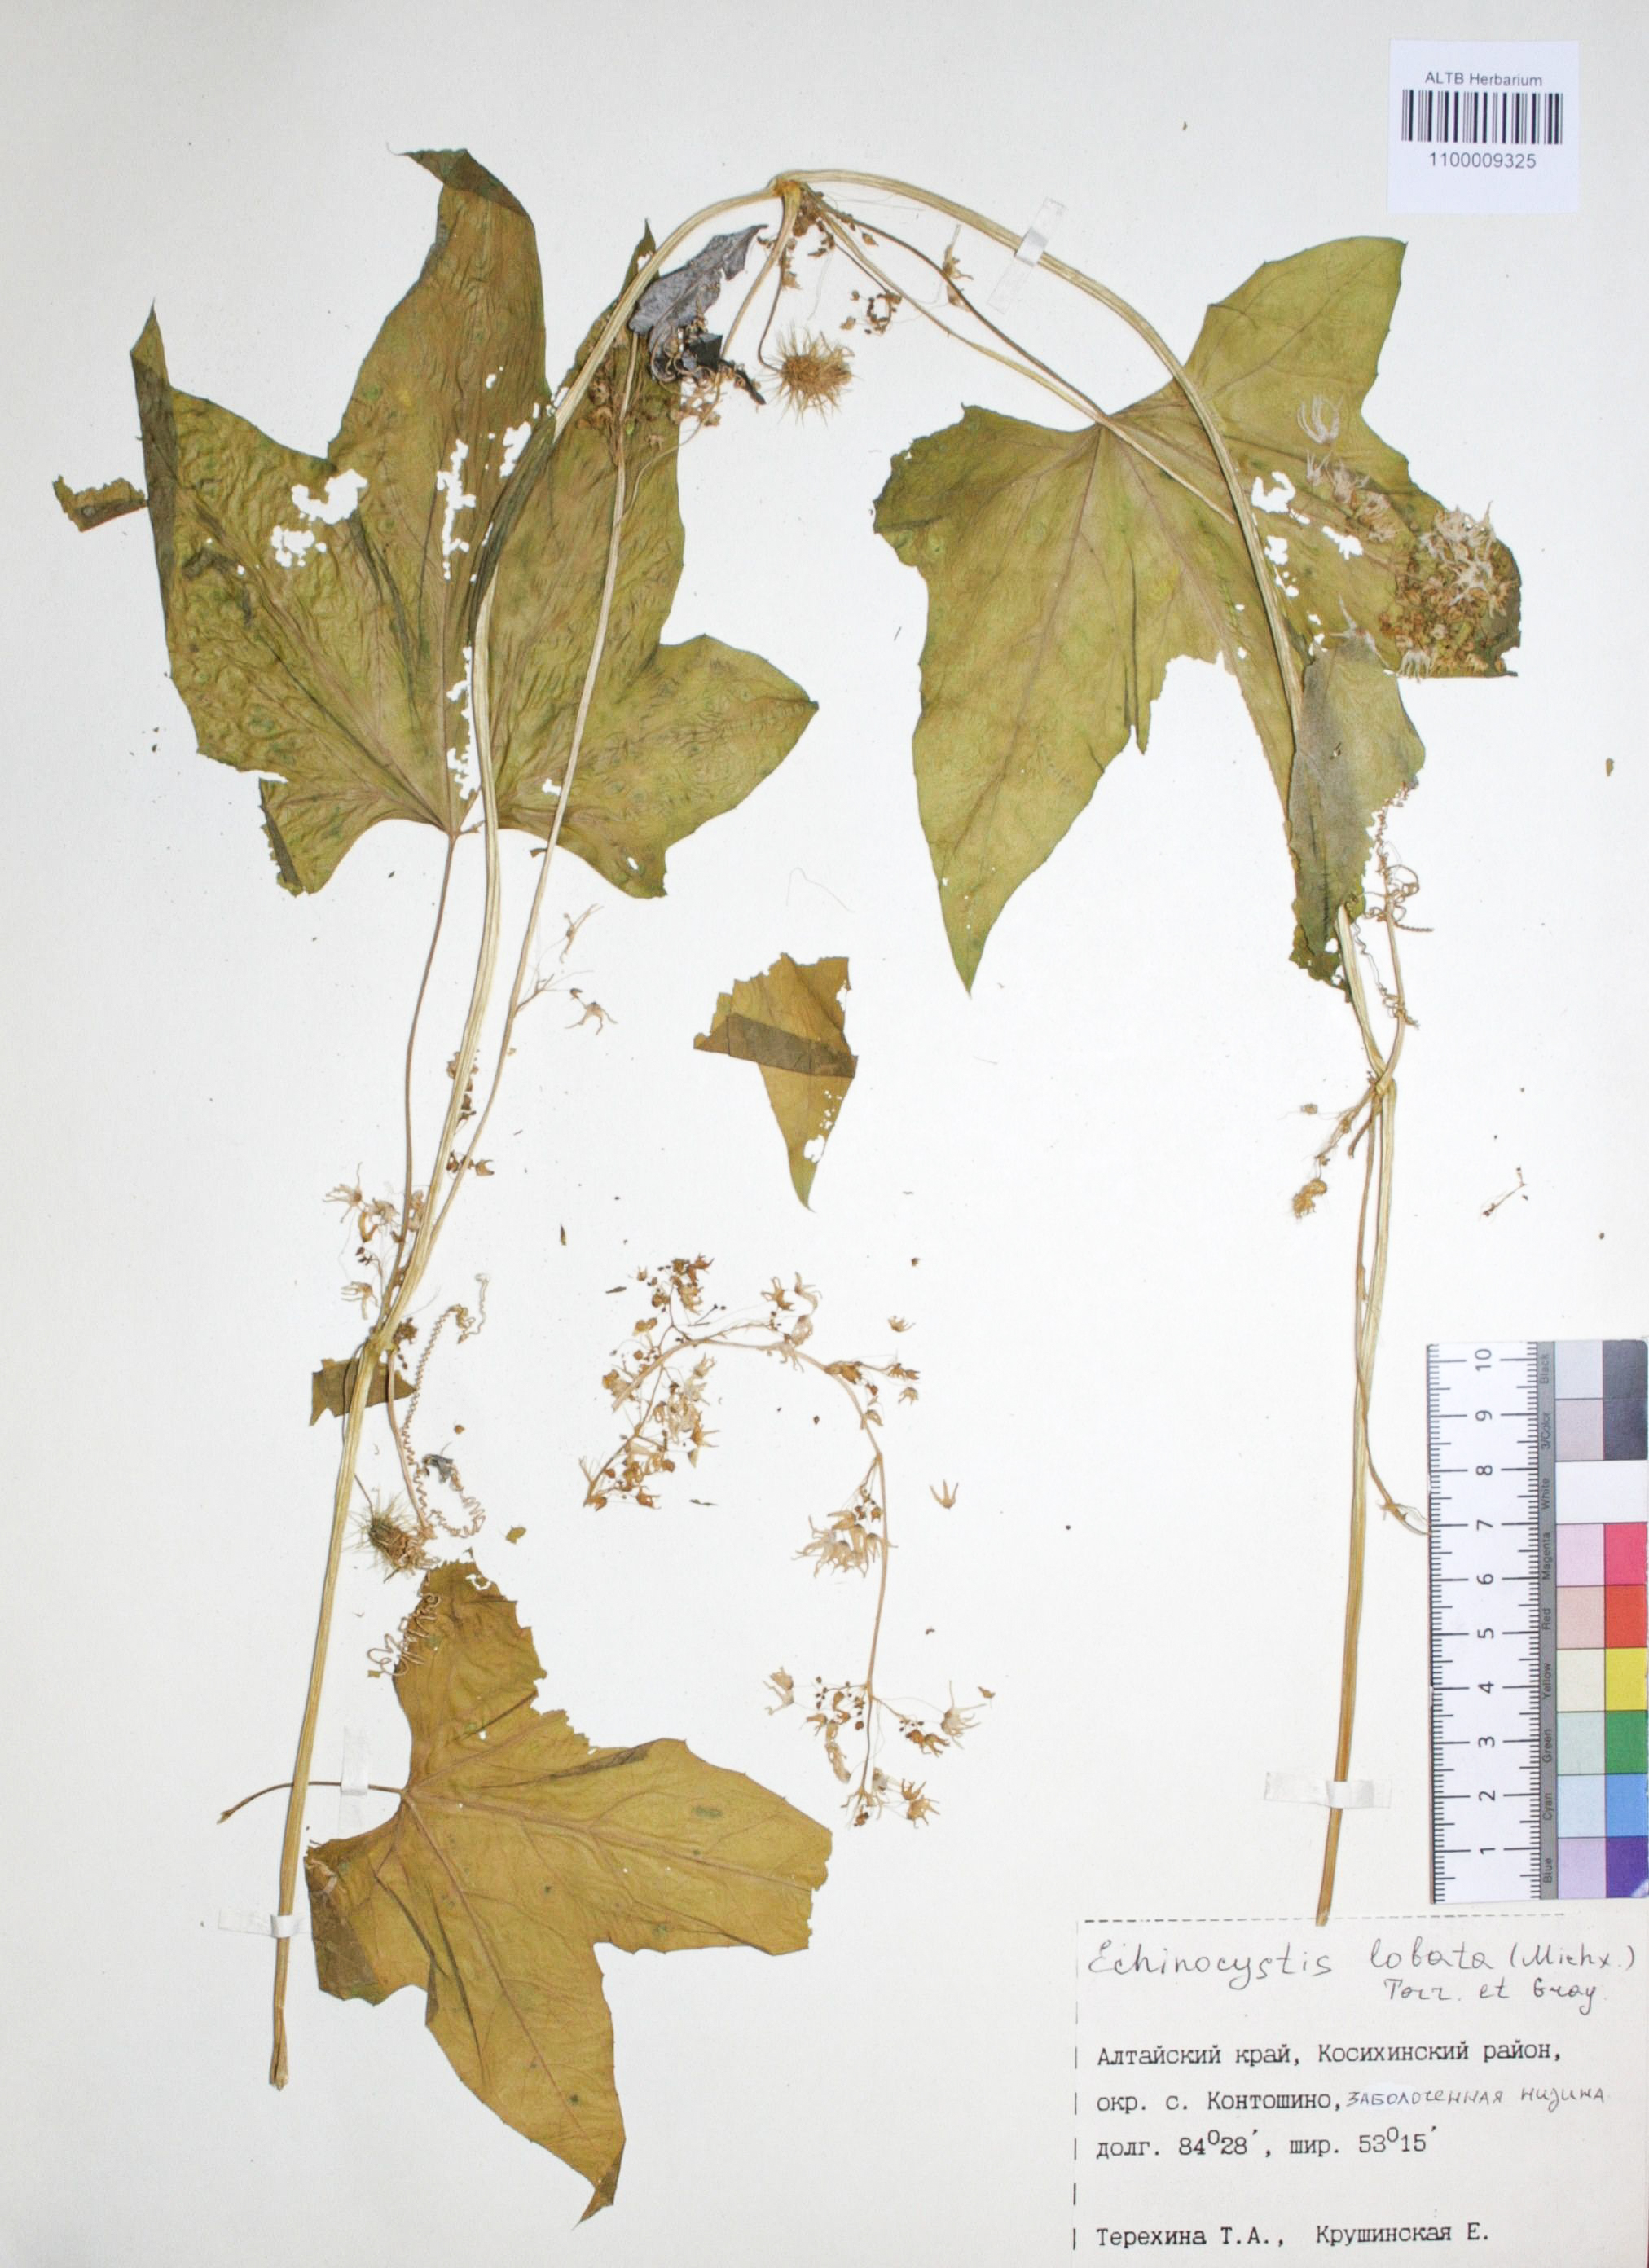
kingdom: Plantae
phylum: Tracheophyta
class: Magnoliopsida
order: Cucurbitales
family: Cucurbitaceae
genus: Echinocystis
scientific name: Echinocystis lobata
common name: Wild cucumber
